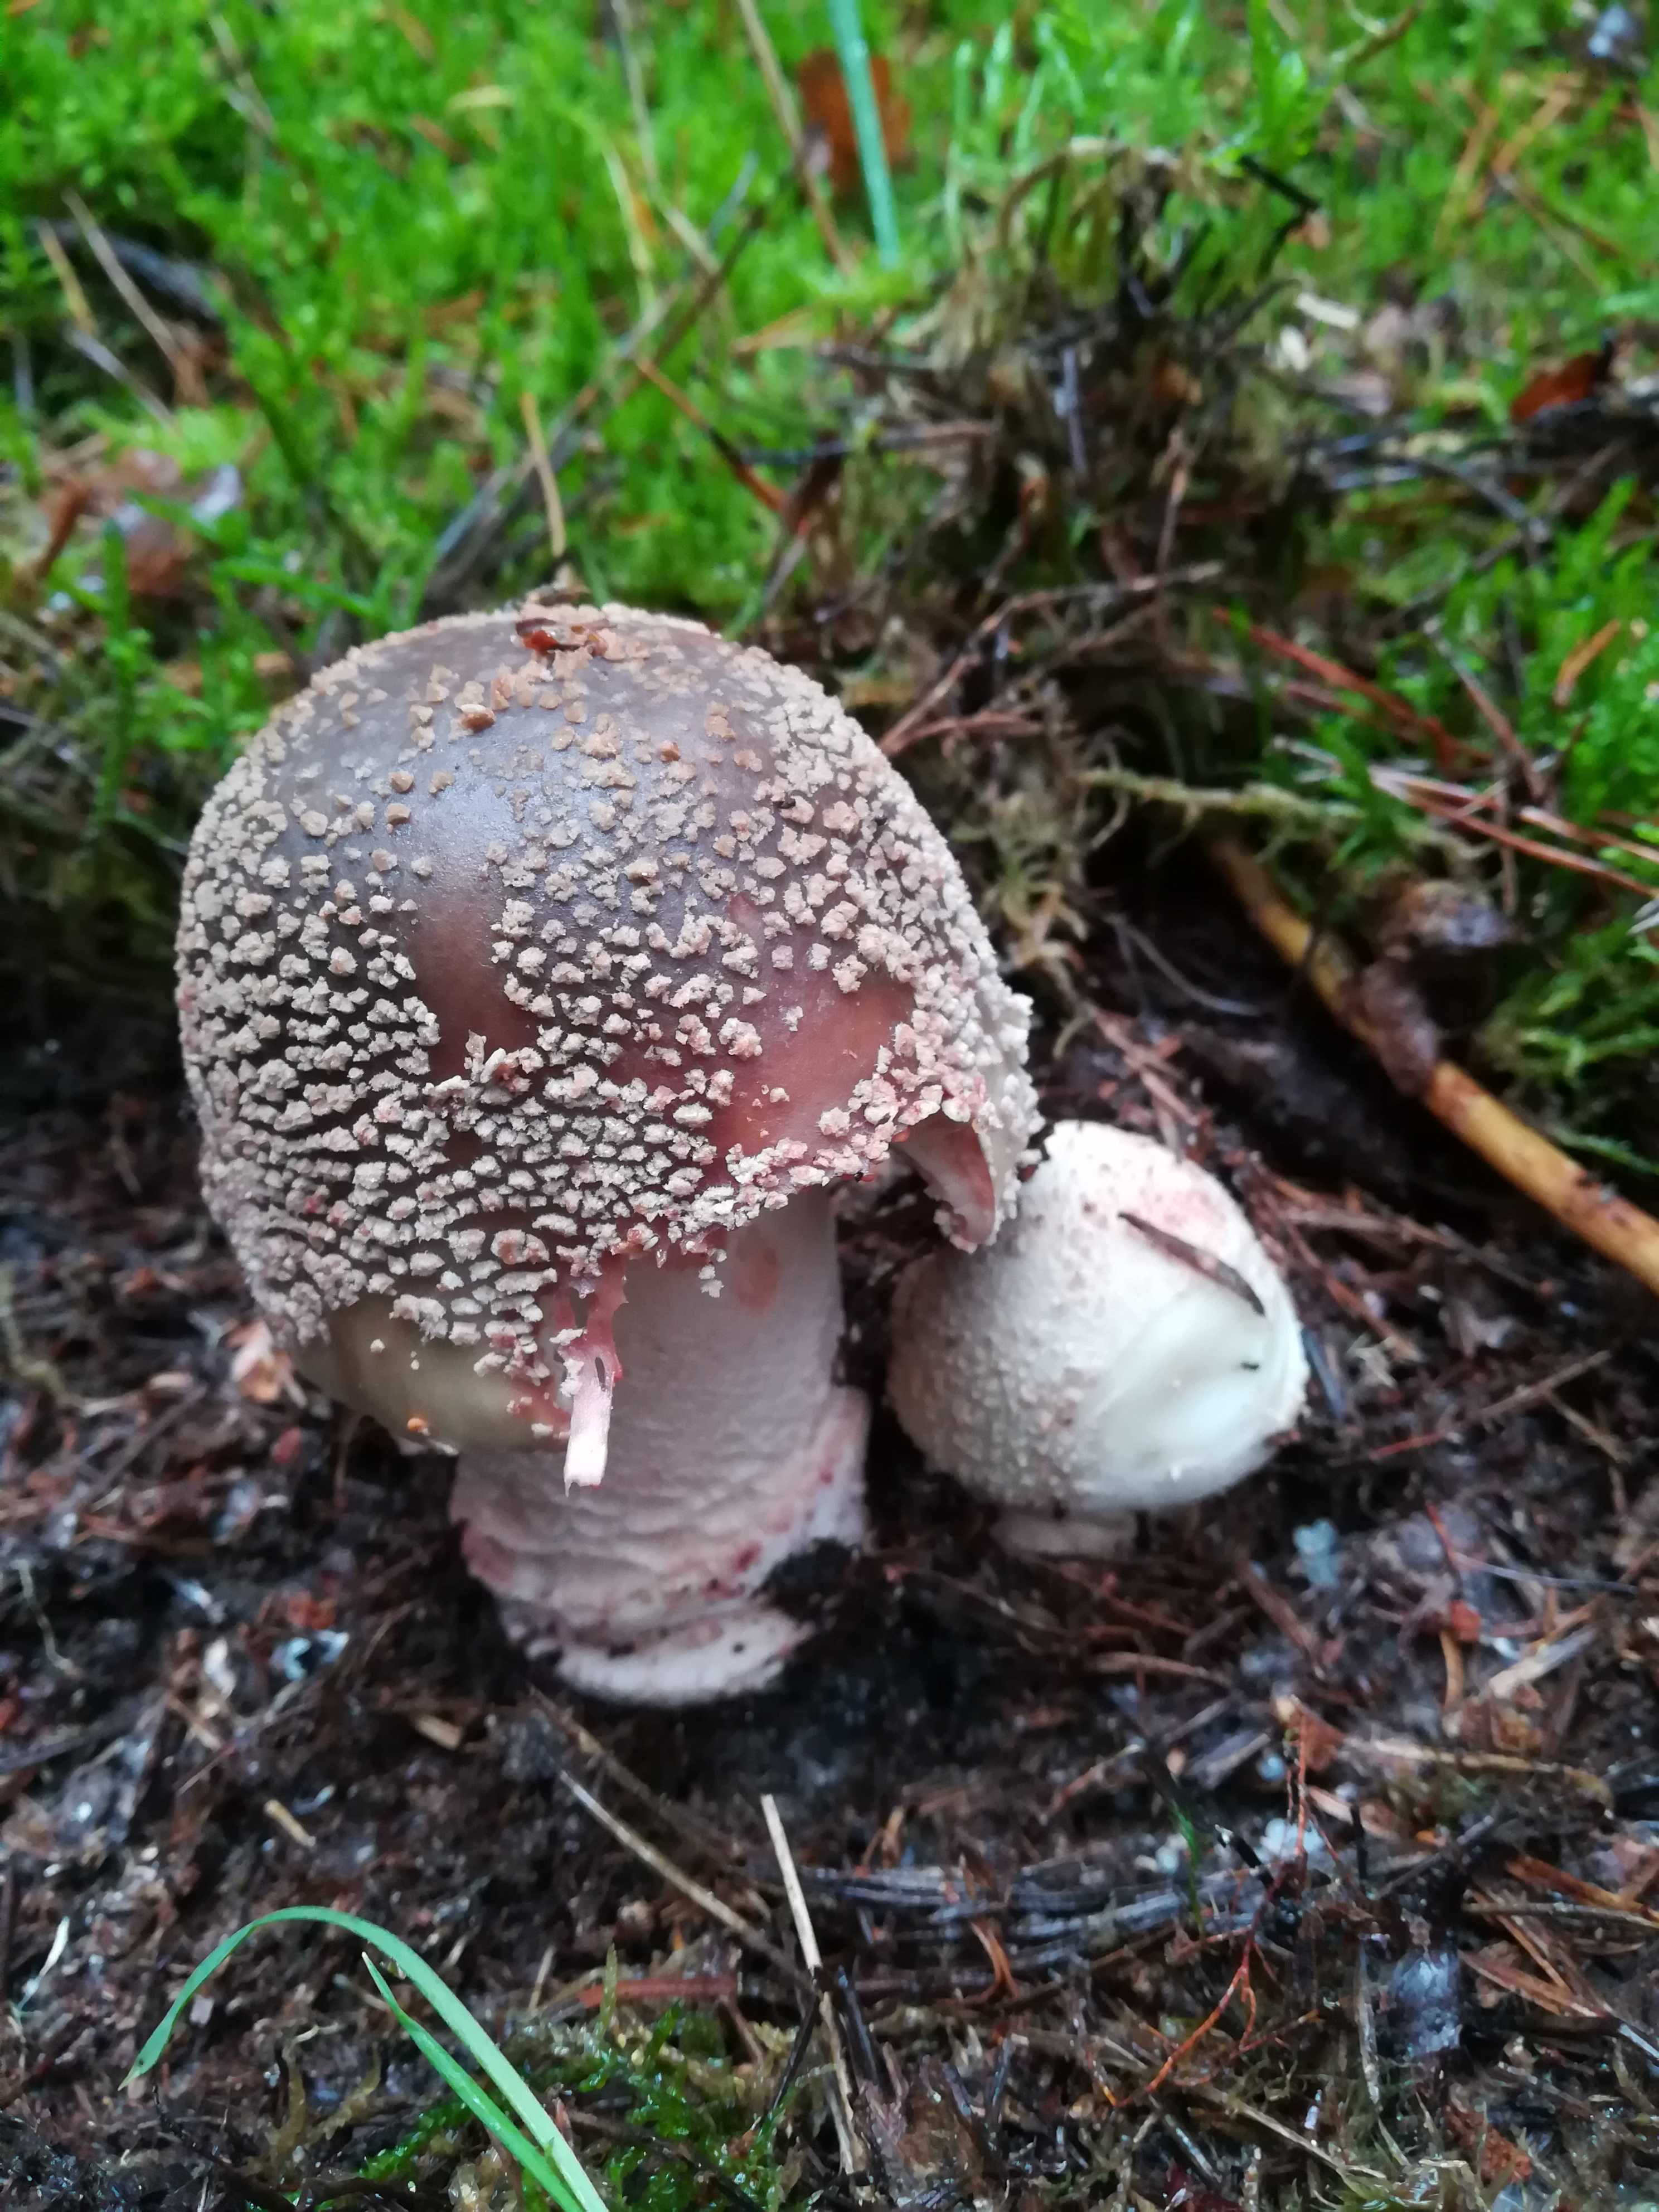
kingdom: Fungi
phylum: Basidiomycota
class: Agaricomycetes
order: Agaricales
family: Amanitaceae
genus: Amanita
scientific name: Amanita rubescens
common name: rødmende fluesvamp
